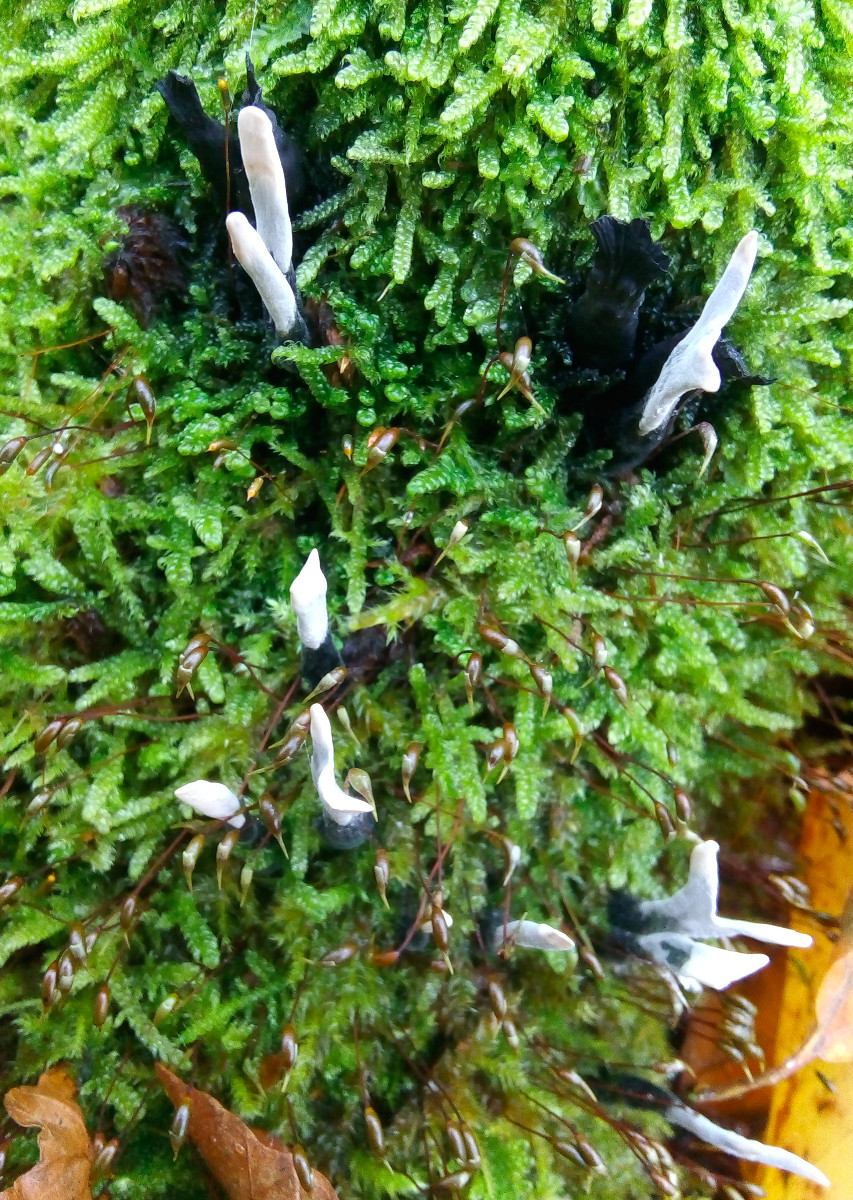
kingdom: Fungi
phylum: Ascomycota
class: Sordariomycetes
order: Xylariales
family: Xylariaceae
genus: Xylaria
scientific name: Xylaria hypoxylon
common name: grenet stødsvamp
